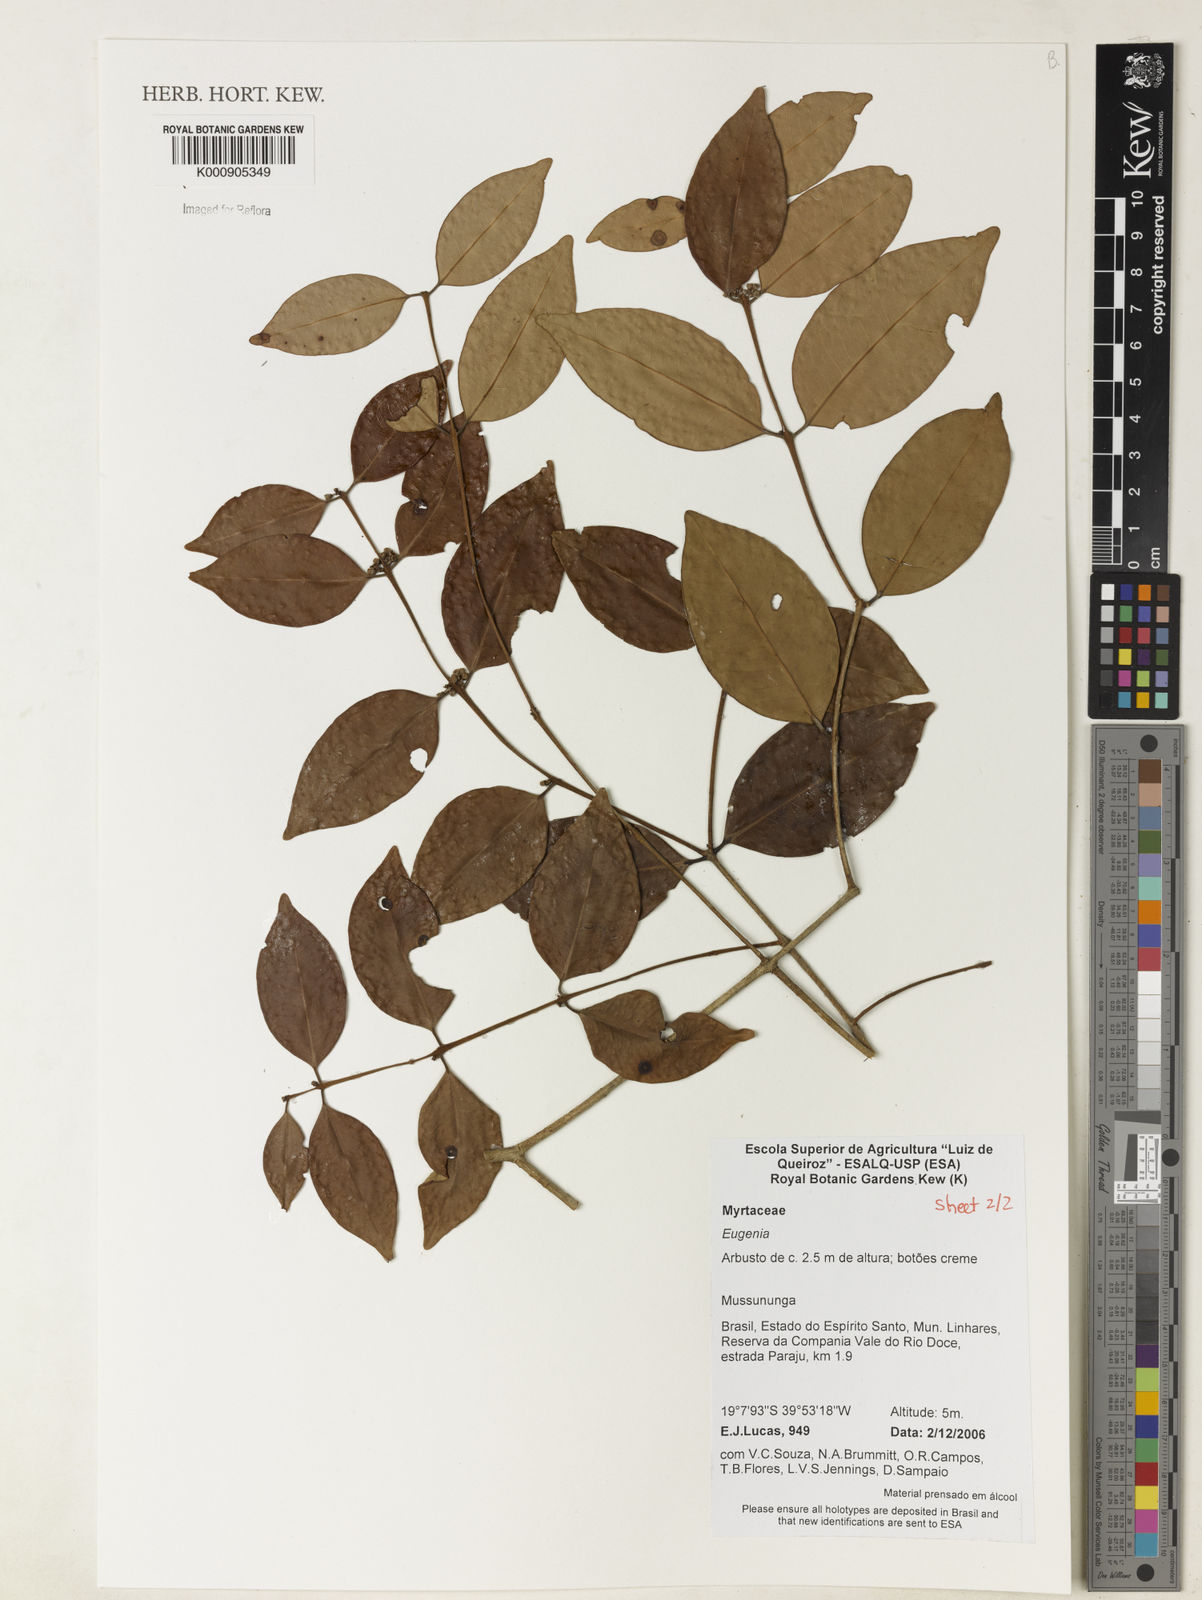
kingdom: Plantae
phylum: Tracheophyta
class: Magnoliopsida
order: Myrtales
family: Myrtaceae
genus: Eugenia
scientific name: Eugenia brejoensis
